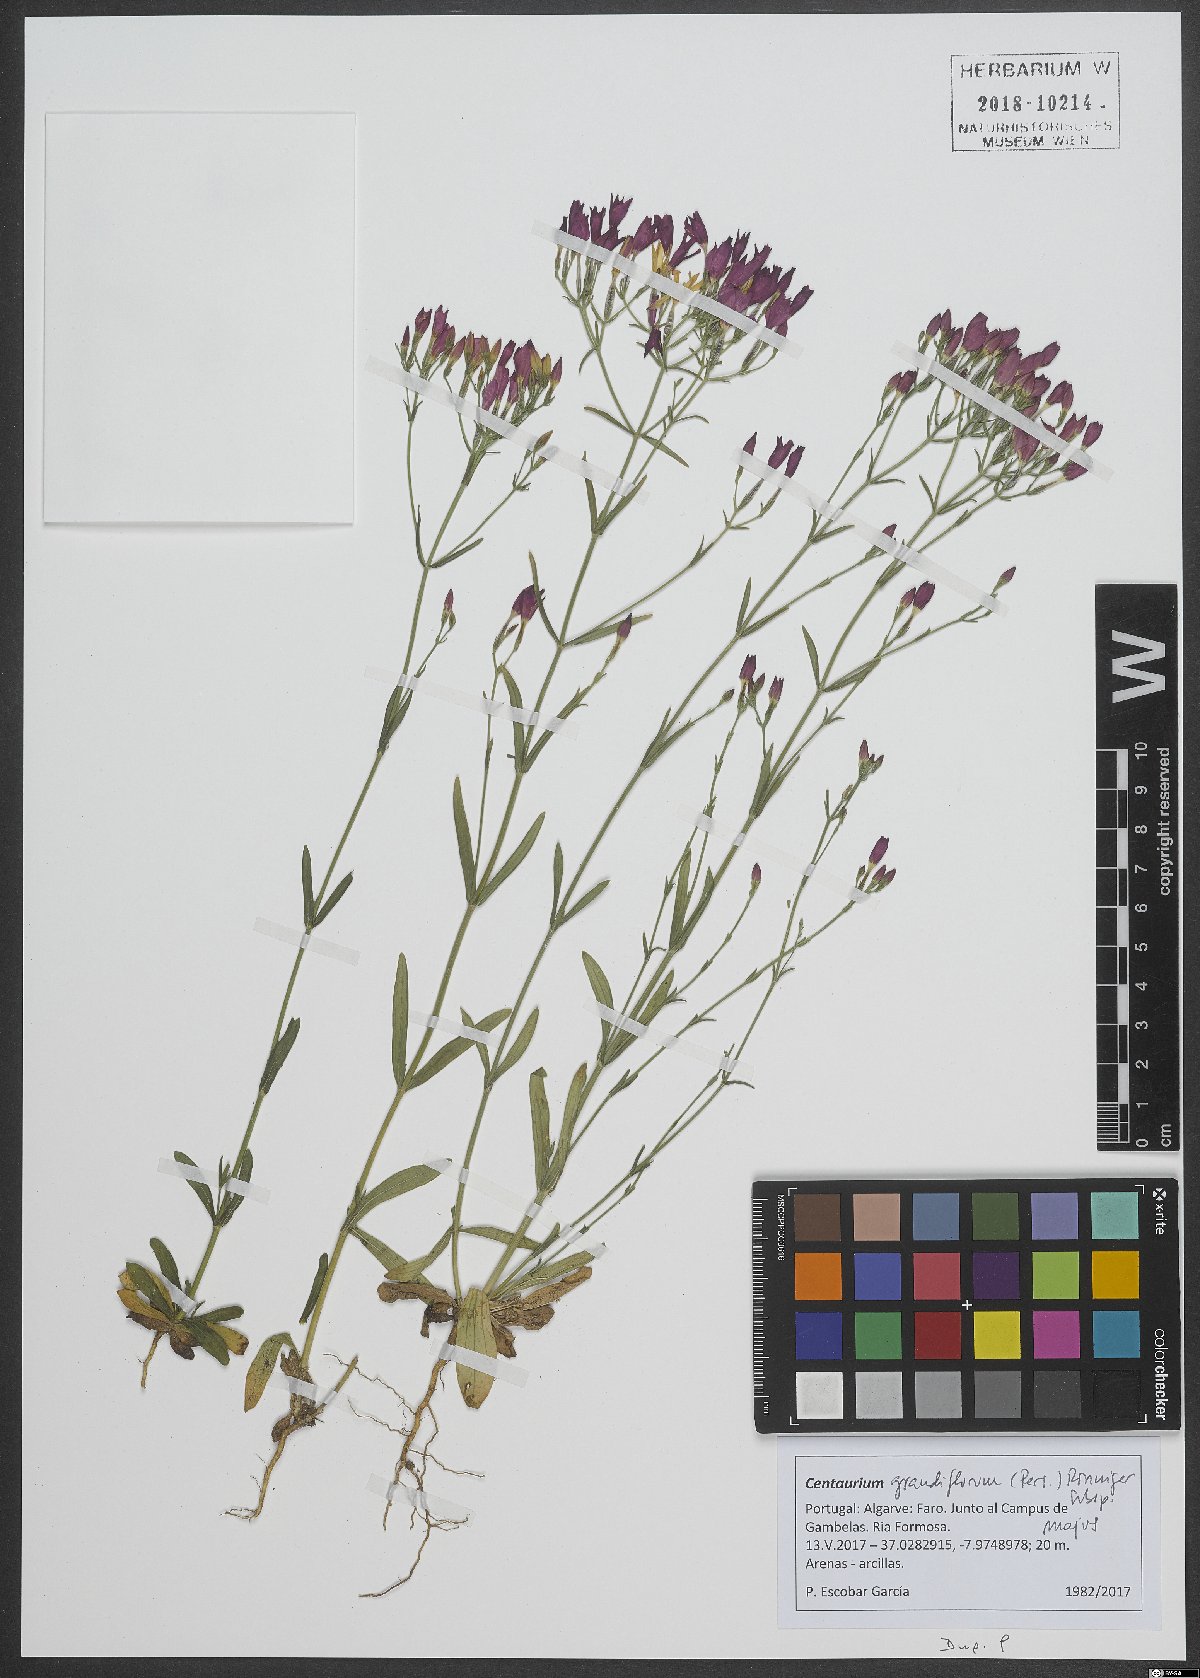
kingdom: Plantae
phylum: Tracheophyta
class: Magnoliopsida
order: Gentianales
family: Gentianaceae
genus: Centaurium
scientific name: Centaurium grandiflorum
